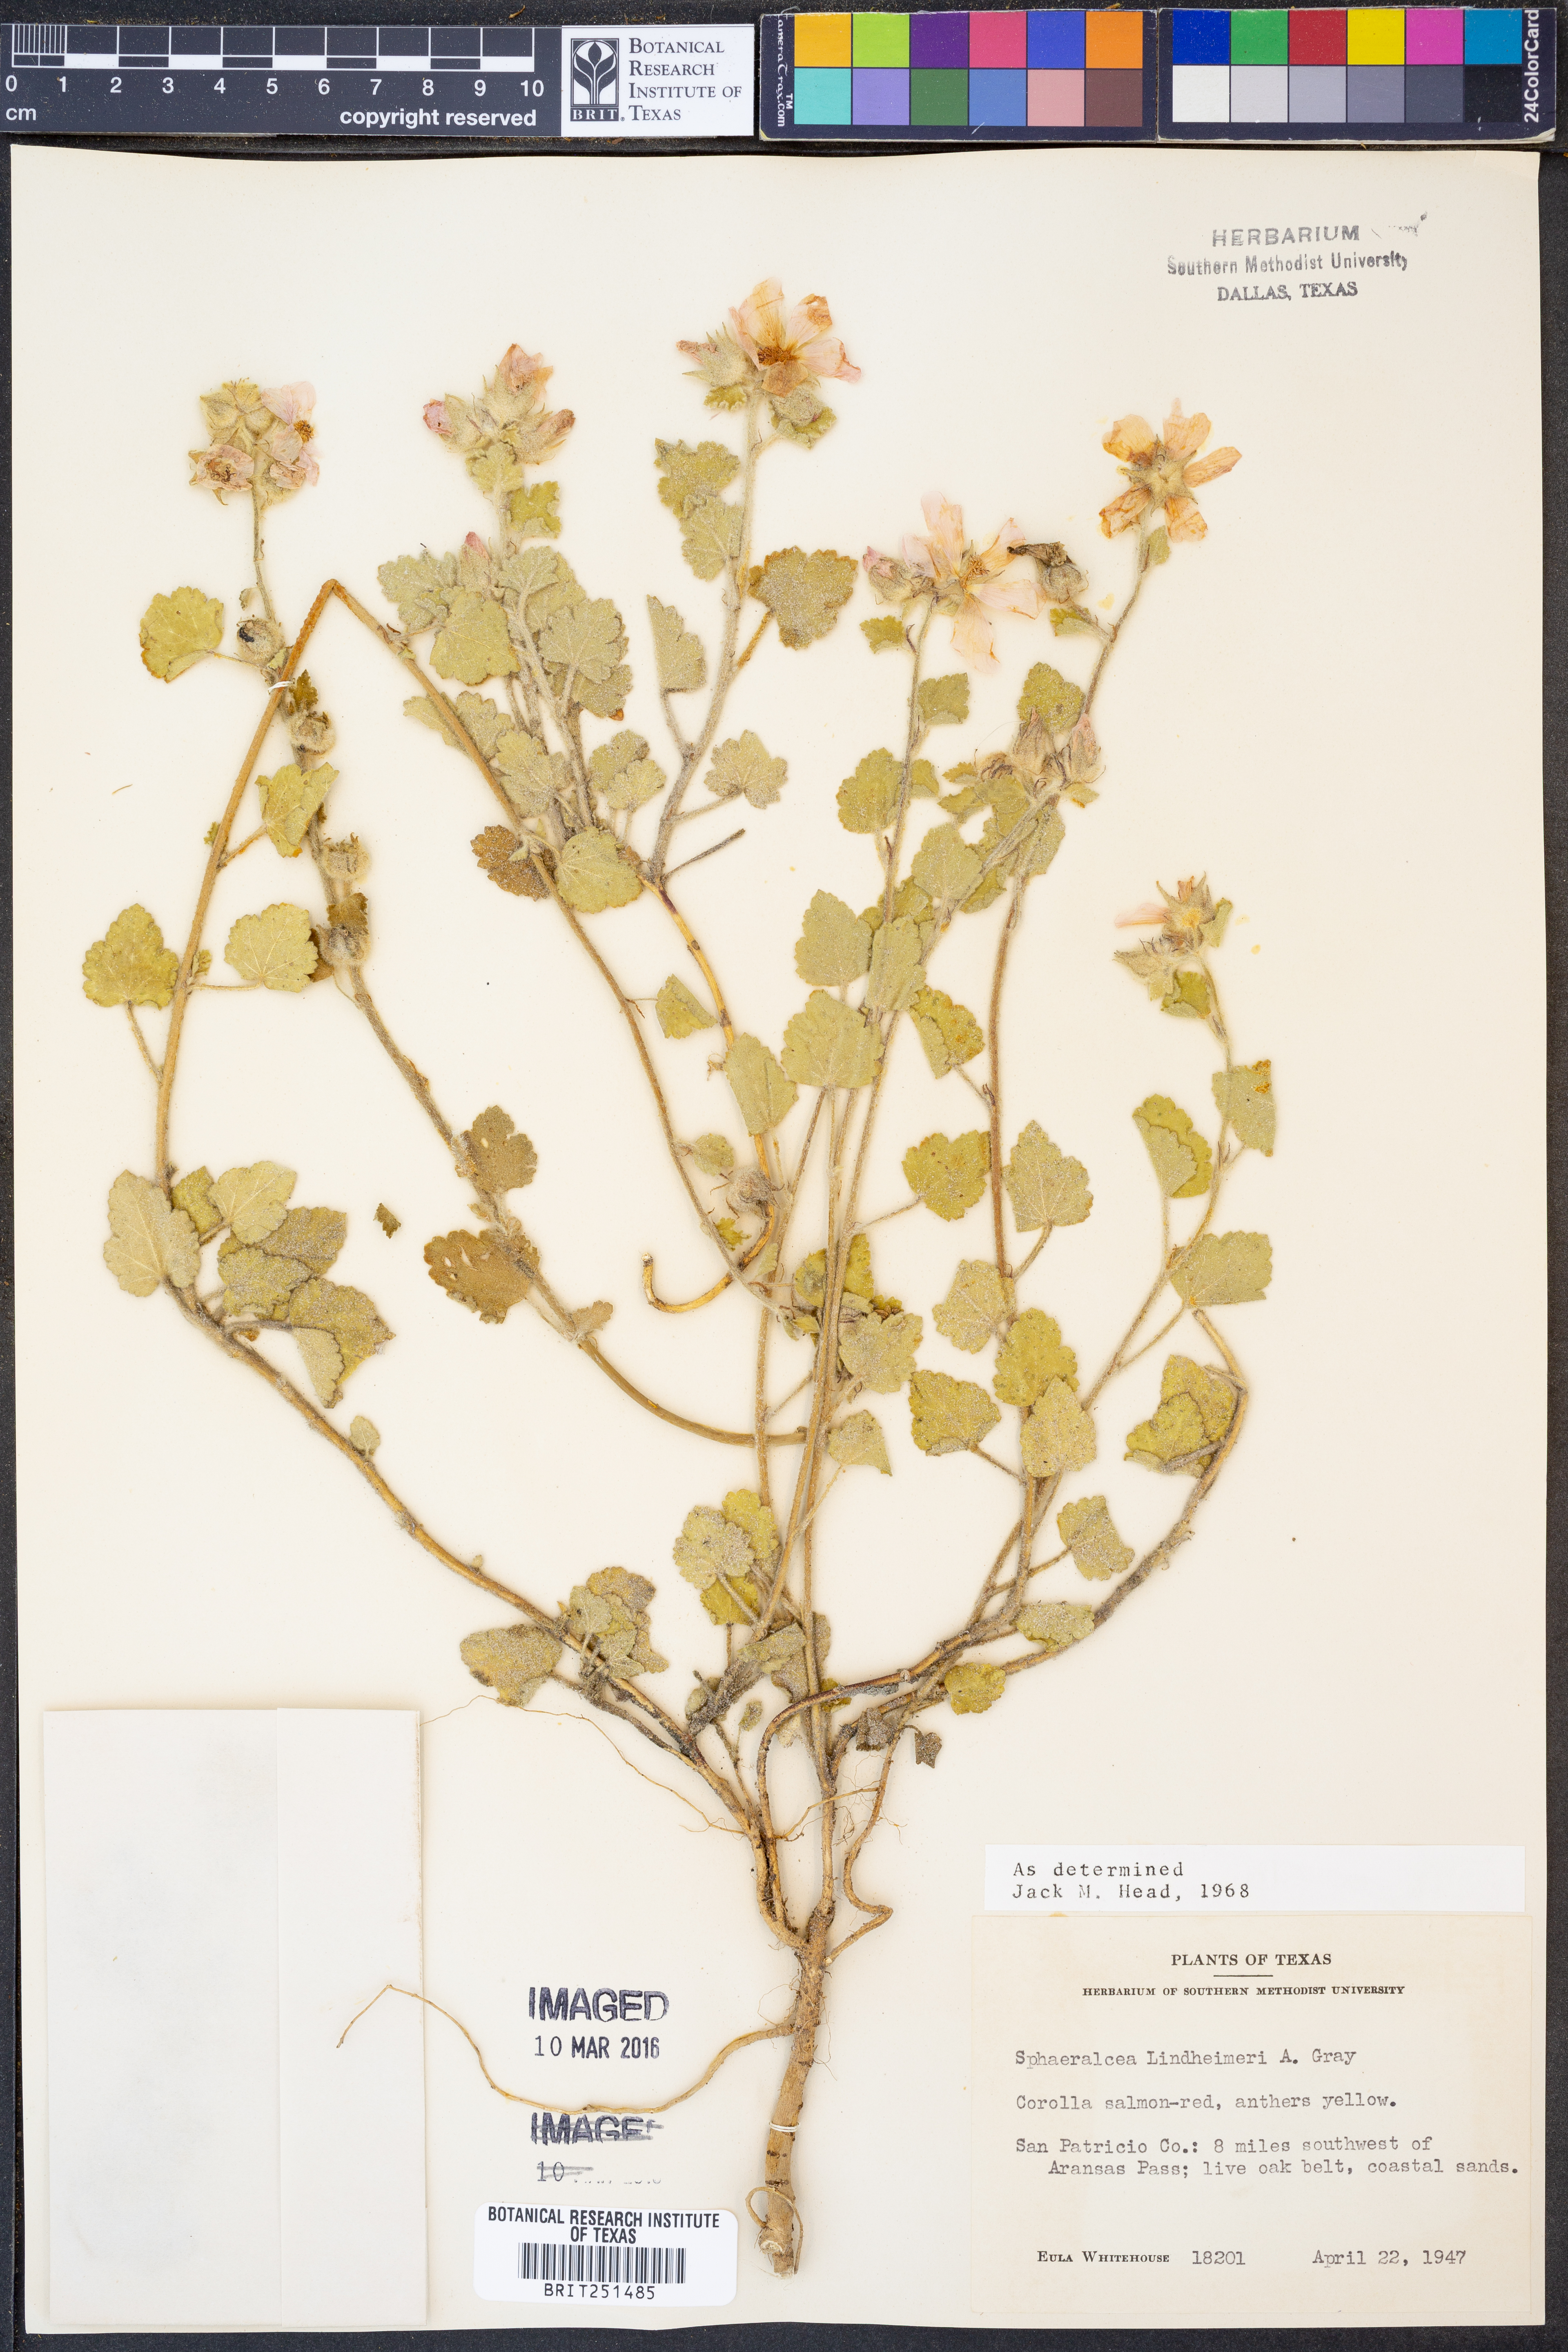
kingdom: Plantae
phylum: Tracheophyta
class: Magnoliopsida
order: Malvales
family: Malvaceae
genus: Sphaeralcea
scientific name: Sphaeralcea lindheimeri
